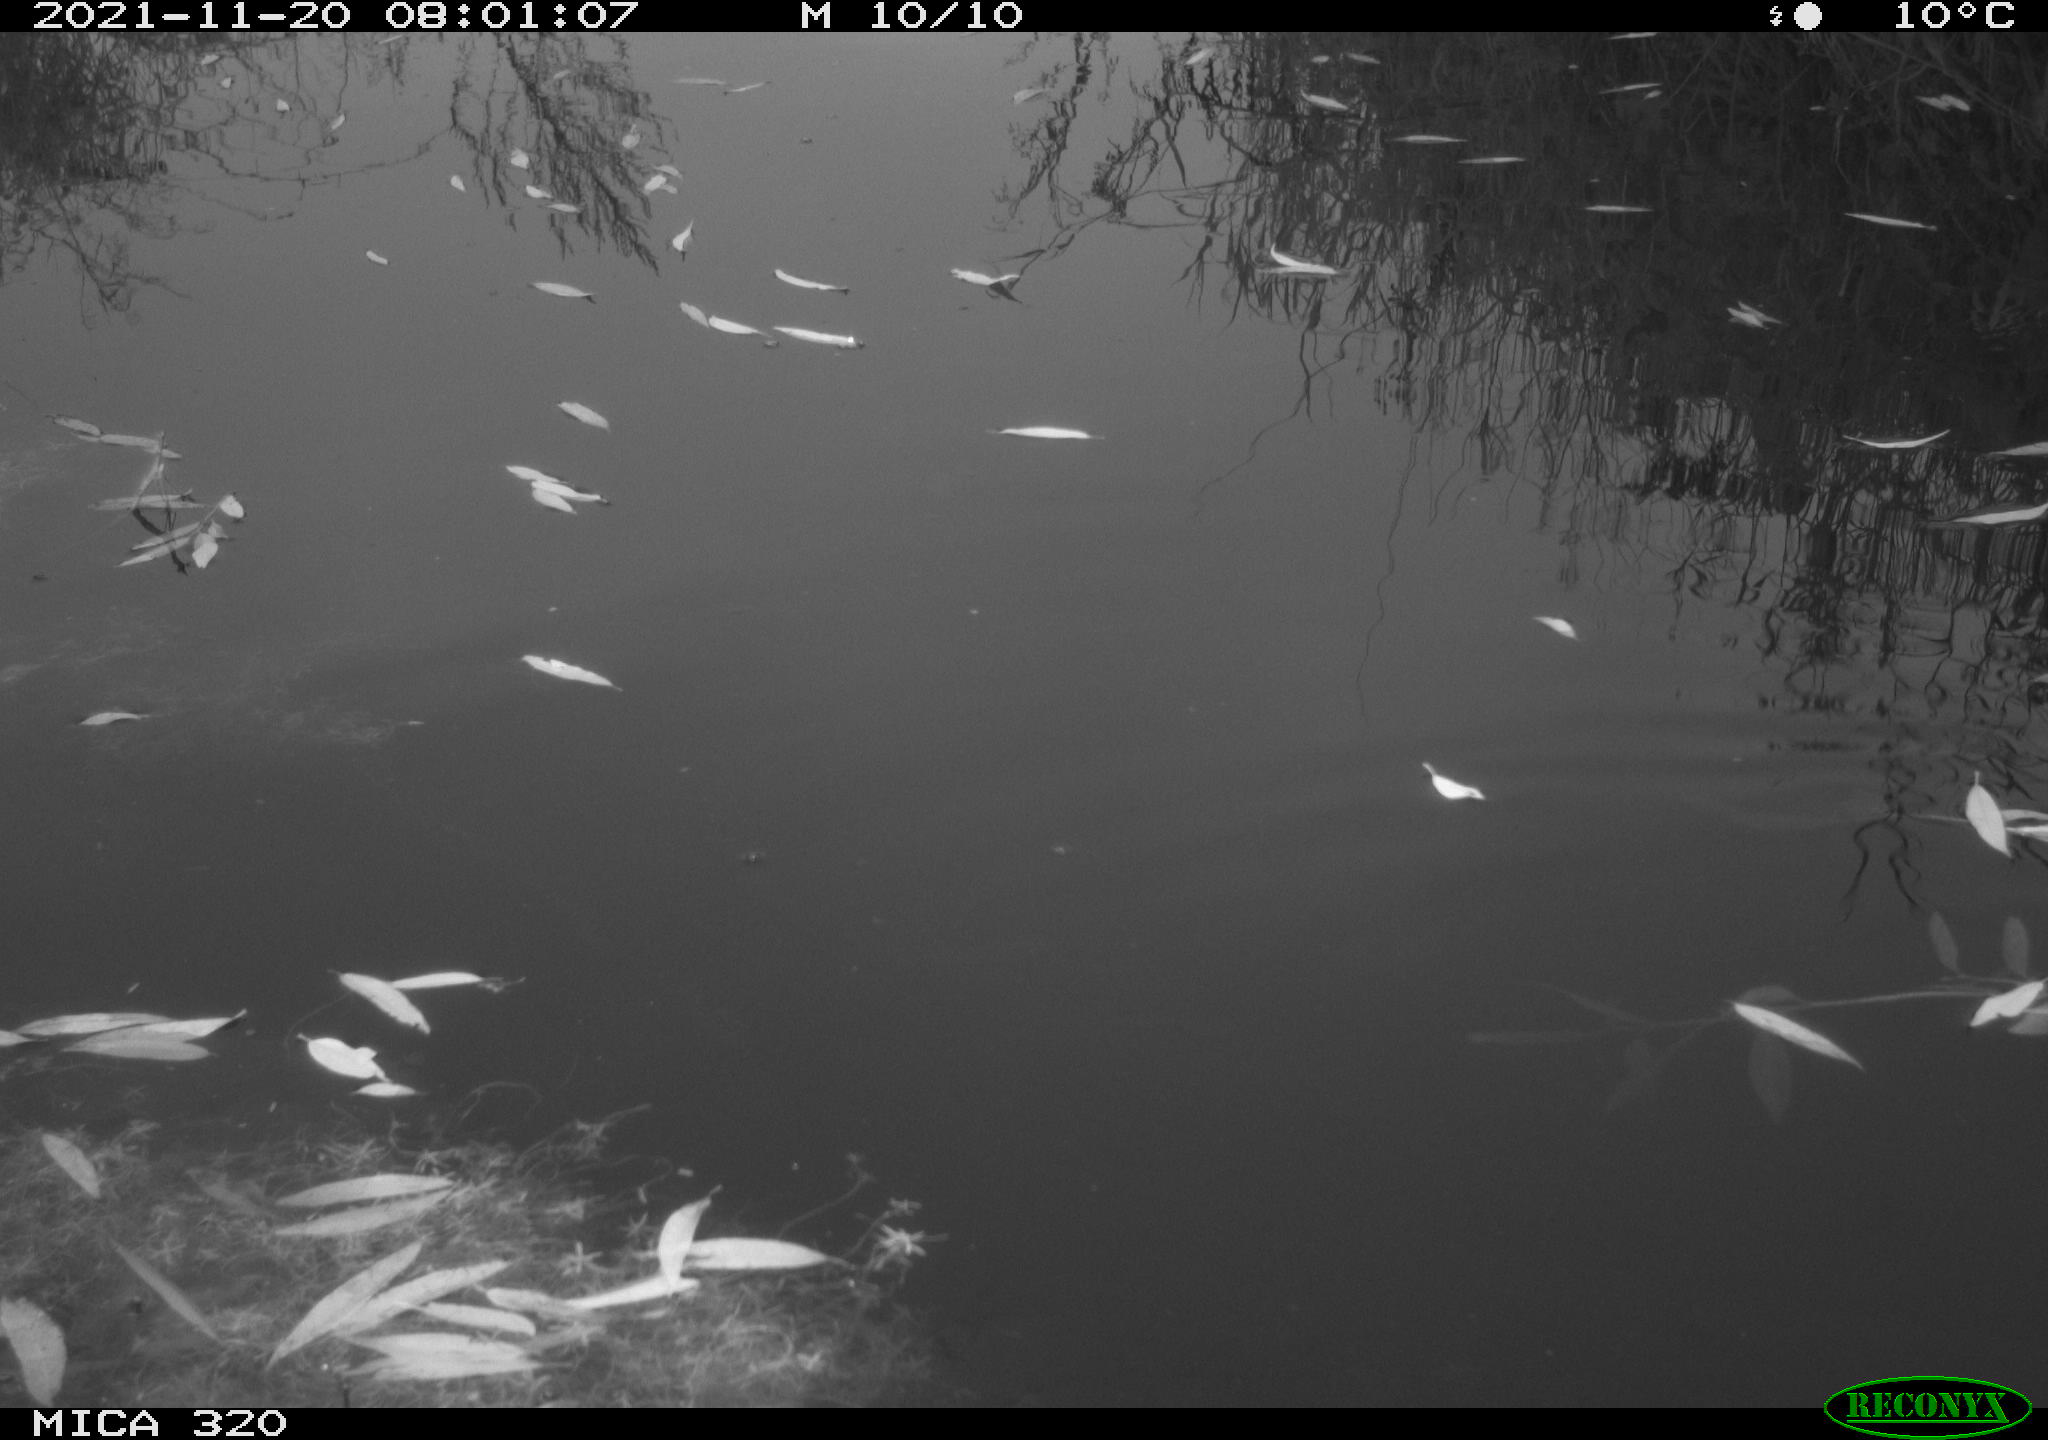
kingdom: Animalia
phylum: Chordata
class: Aves
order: Gruiformes
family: Rallidae
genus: Gallinula
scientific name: Gallinula chloropus
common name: Common moorhen
